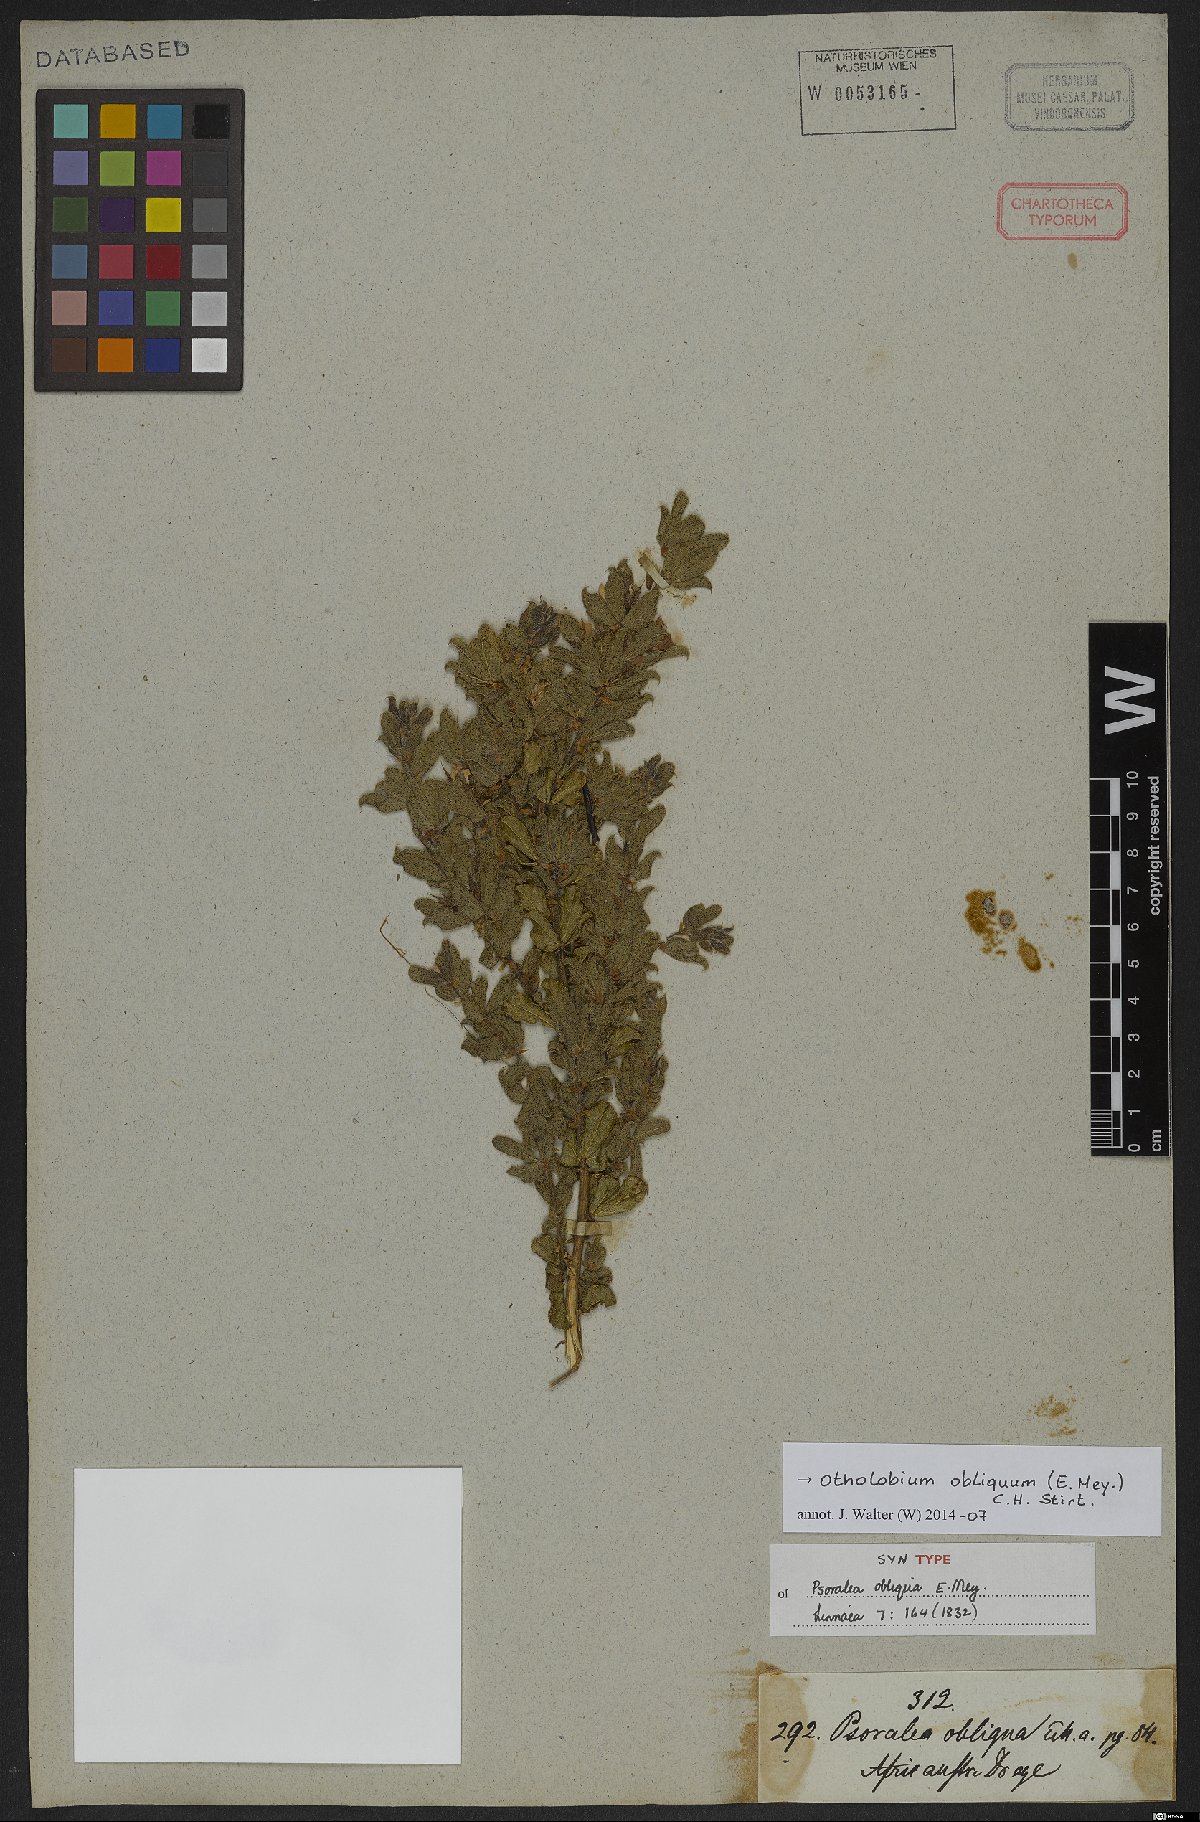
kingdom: Plantae
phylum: Tracheophyta
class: Magnoliopsida
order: Fabales
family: Fabaceae
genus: Psoralea
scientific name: Psoralea obliqua
